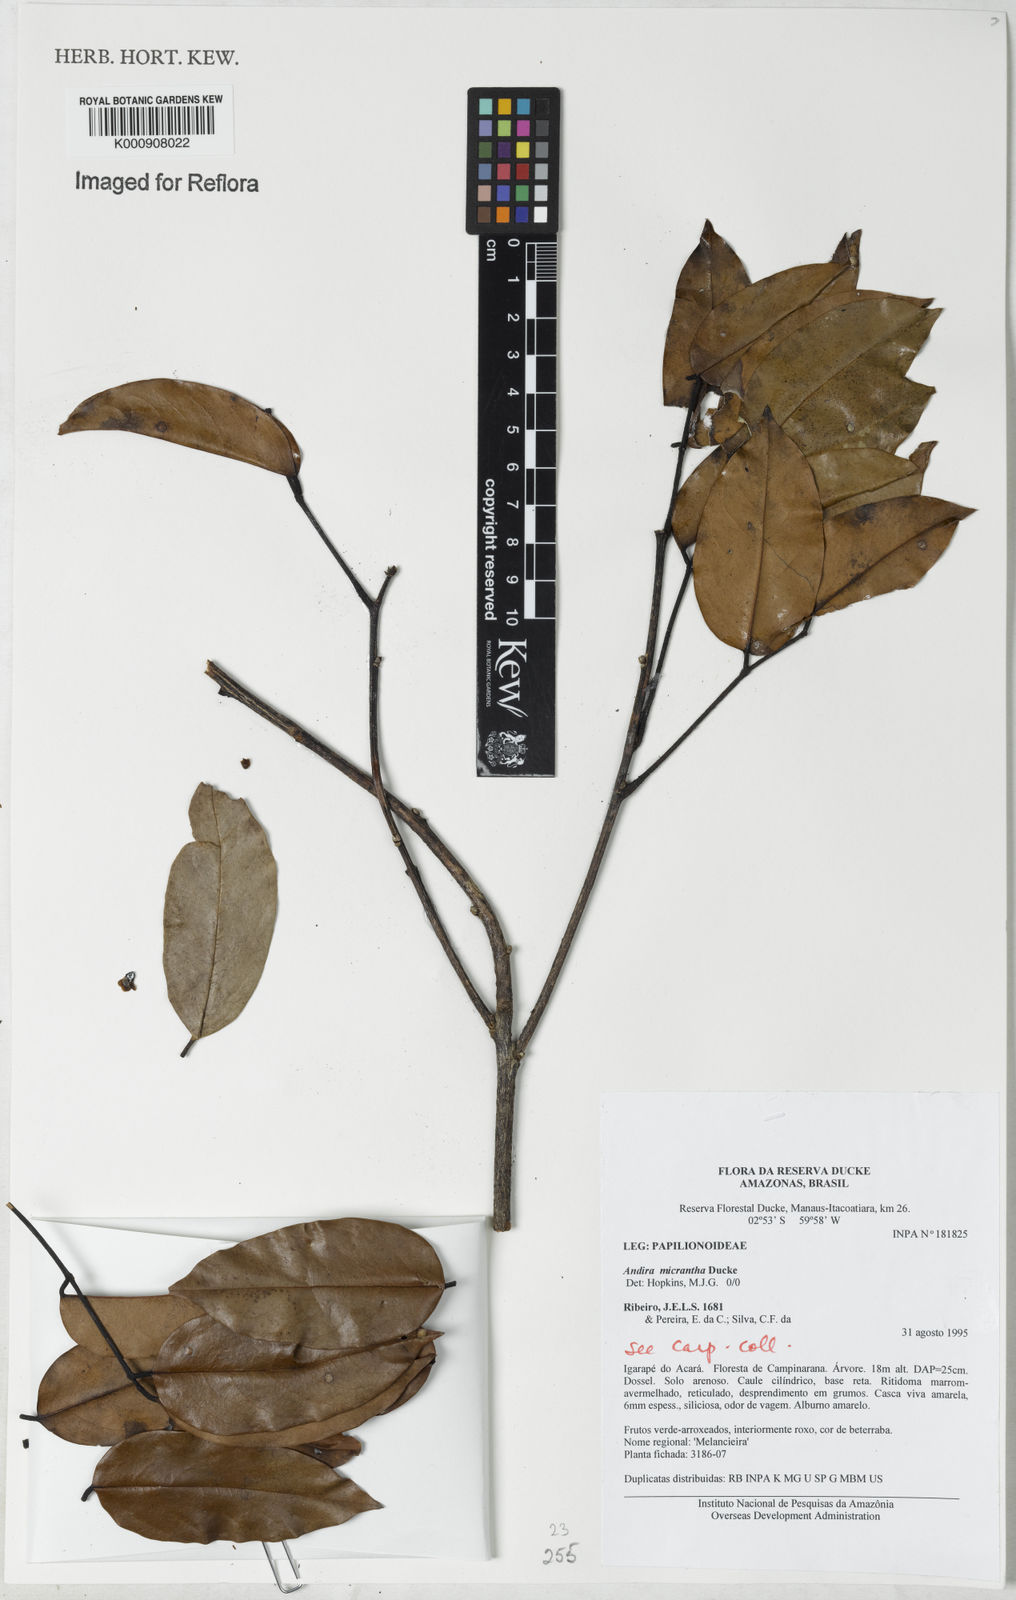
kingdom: Plantae
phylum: Tracheophyta
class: Magnoliopsida
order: Fabales
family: Fabaceae
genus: Andira
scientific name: Andira micrantha
